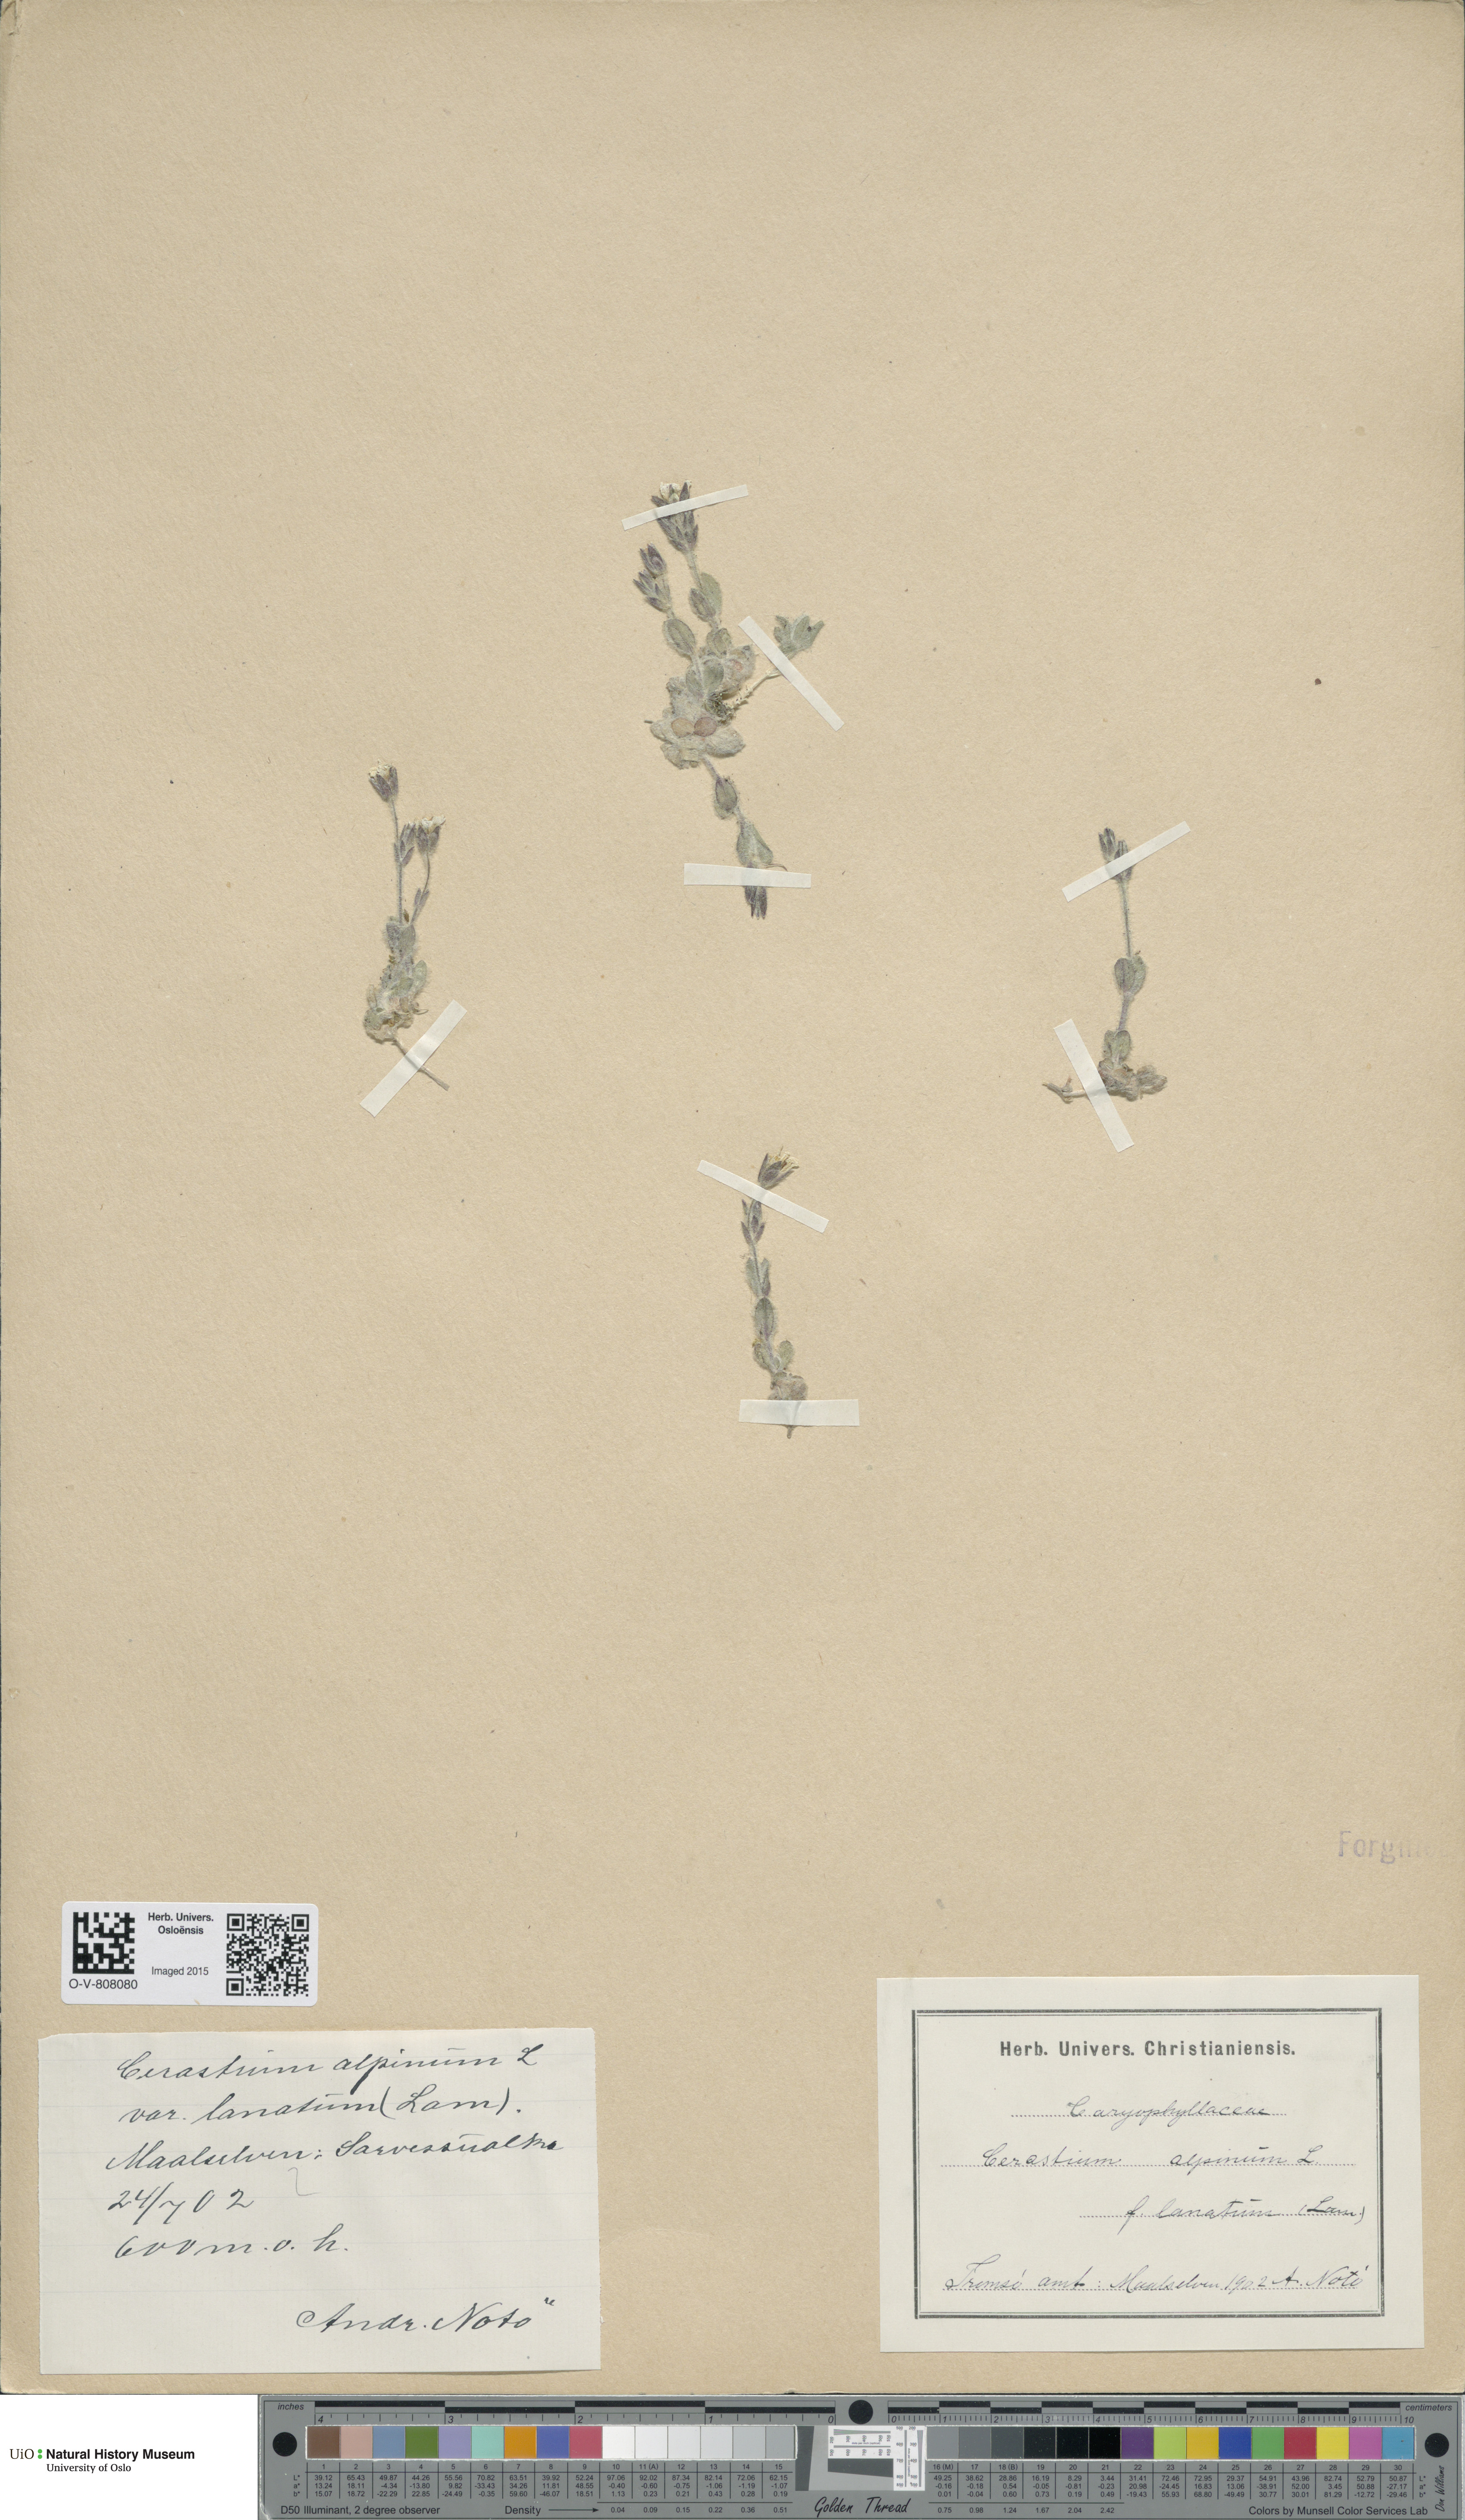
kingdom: Plantae
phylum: Tracheophyta
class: Magnoliopsida
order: Caryophyllales
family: Caryophyllaceae
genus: Cerastium
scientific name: Cerastium alpinum
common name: Alpine mouse-ear
